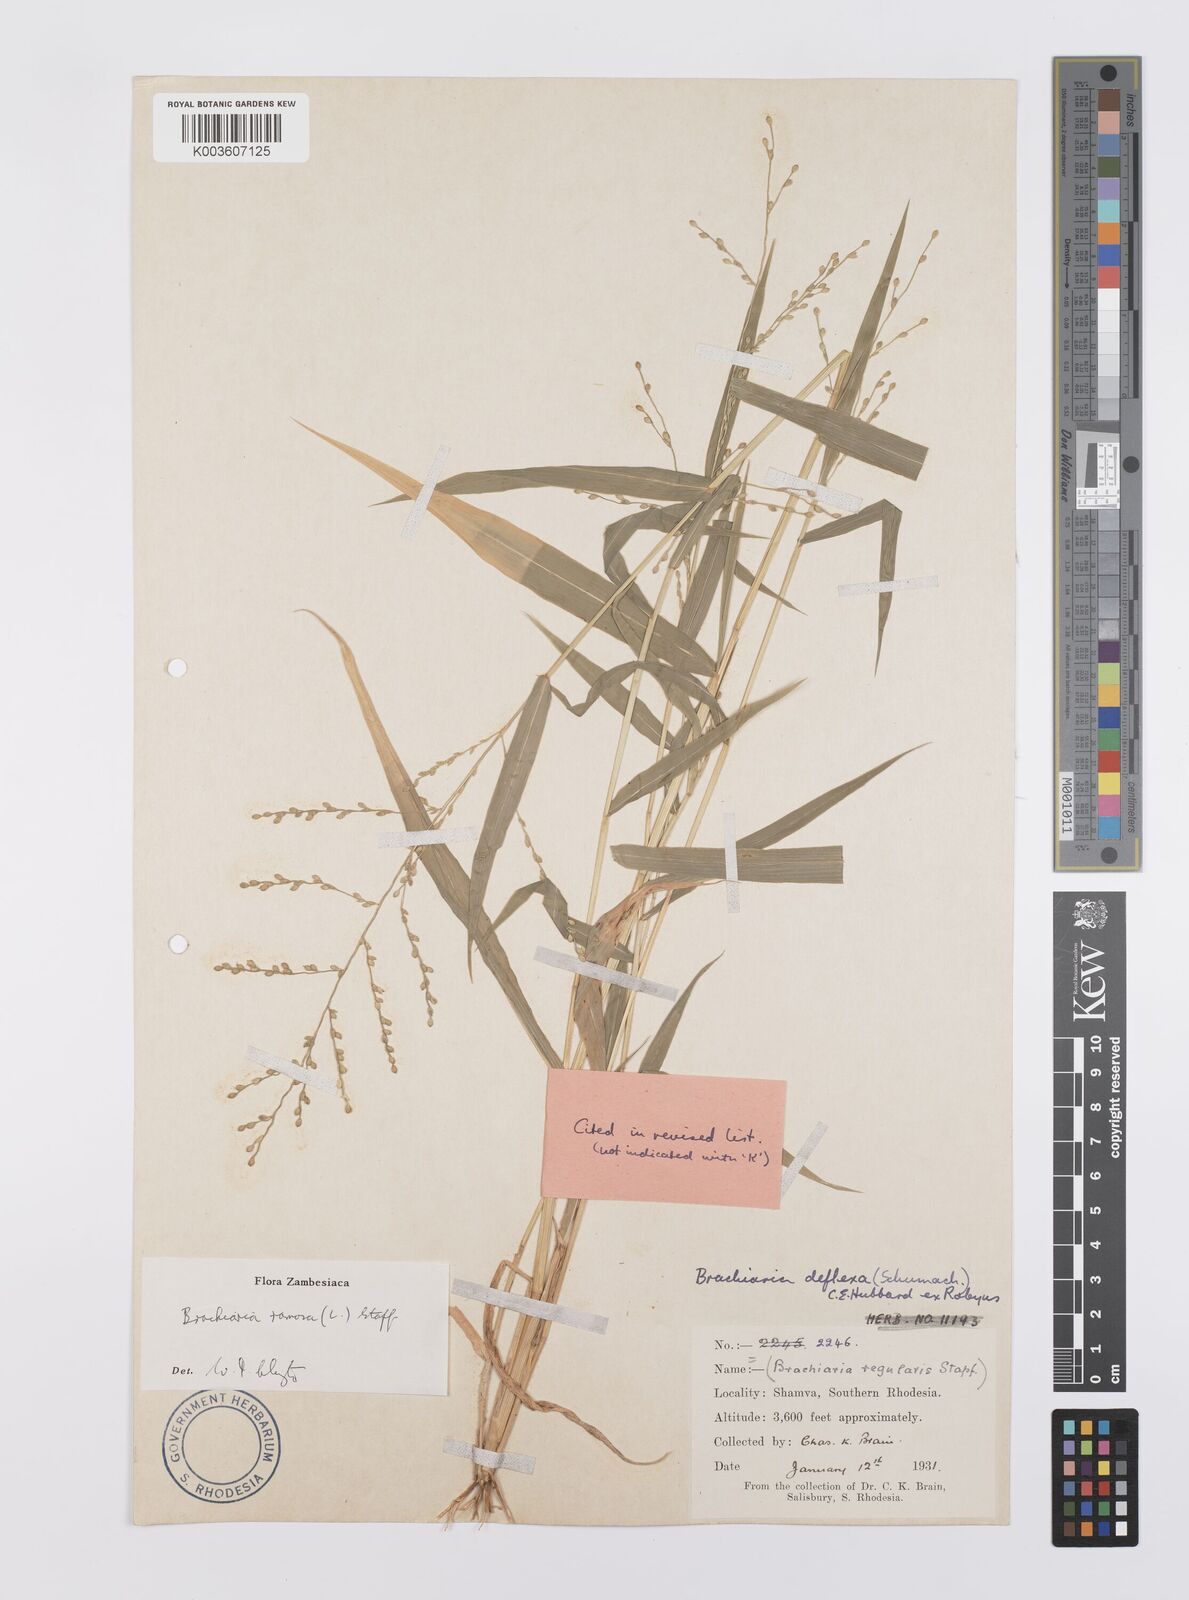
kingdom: Plantae
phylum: Tracheophyta
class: Liliopsida
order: Poales
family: Poaceae
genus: Urochloa
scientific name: Urochloa ramosa
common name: Browntop millet
